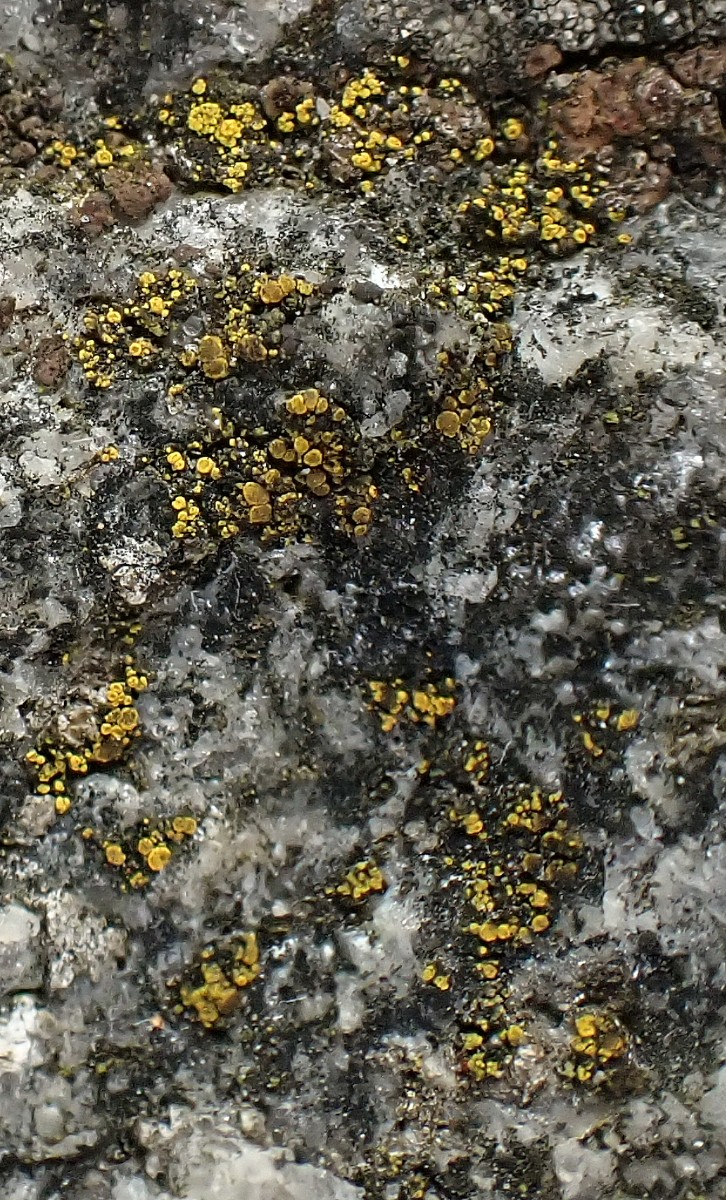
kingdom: Fungi
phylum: Ascomycota
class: Candelariomycetes
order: Candelariales
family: Candelariaceae
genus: Candelariella
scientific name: Candelariella vitellina
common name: almindelig æggeblommelav
